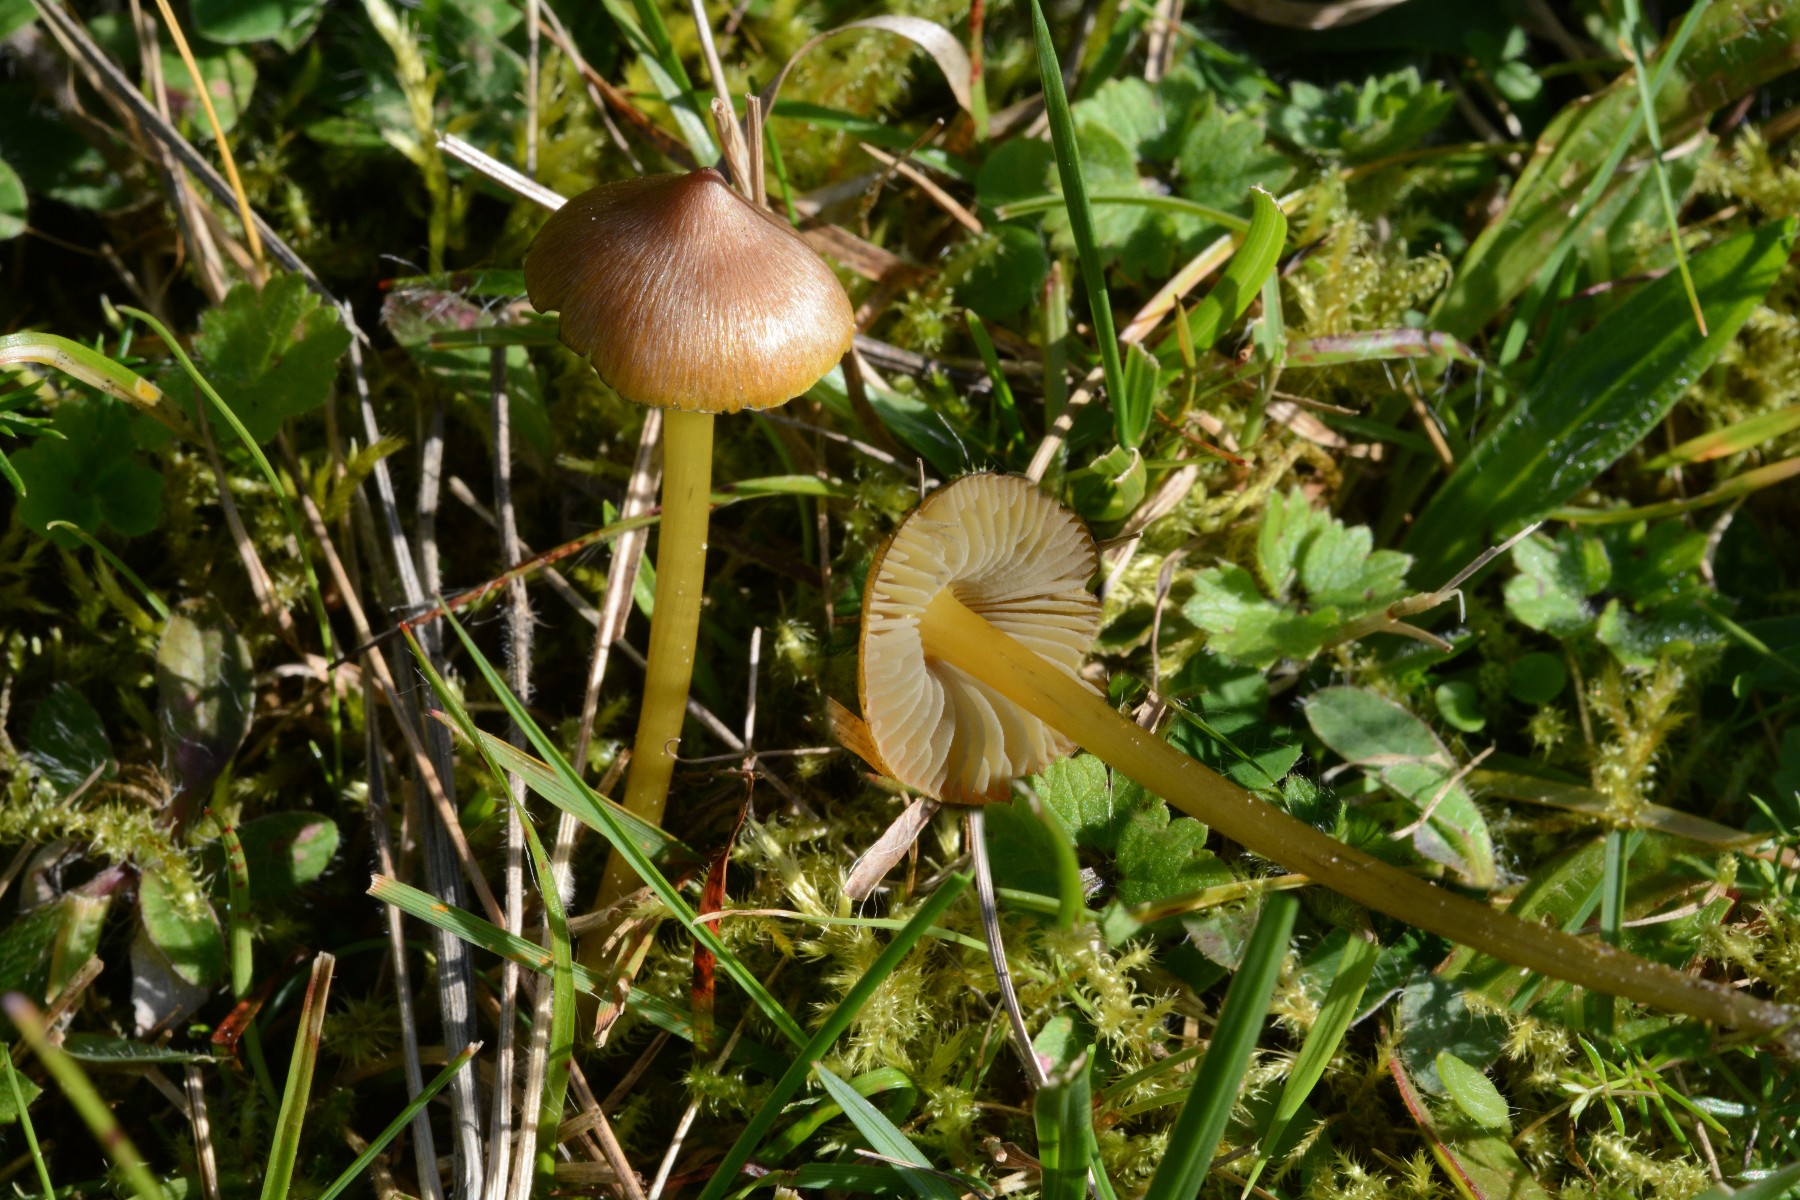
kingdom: Fungi
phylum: Basidiomycota
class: Agaricomycetes
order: Agaricales
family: Hygrophoraceae
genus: Hygrocybe
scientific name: Hygrocybe conica
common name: kegle-vokshat
